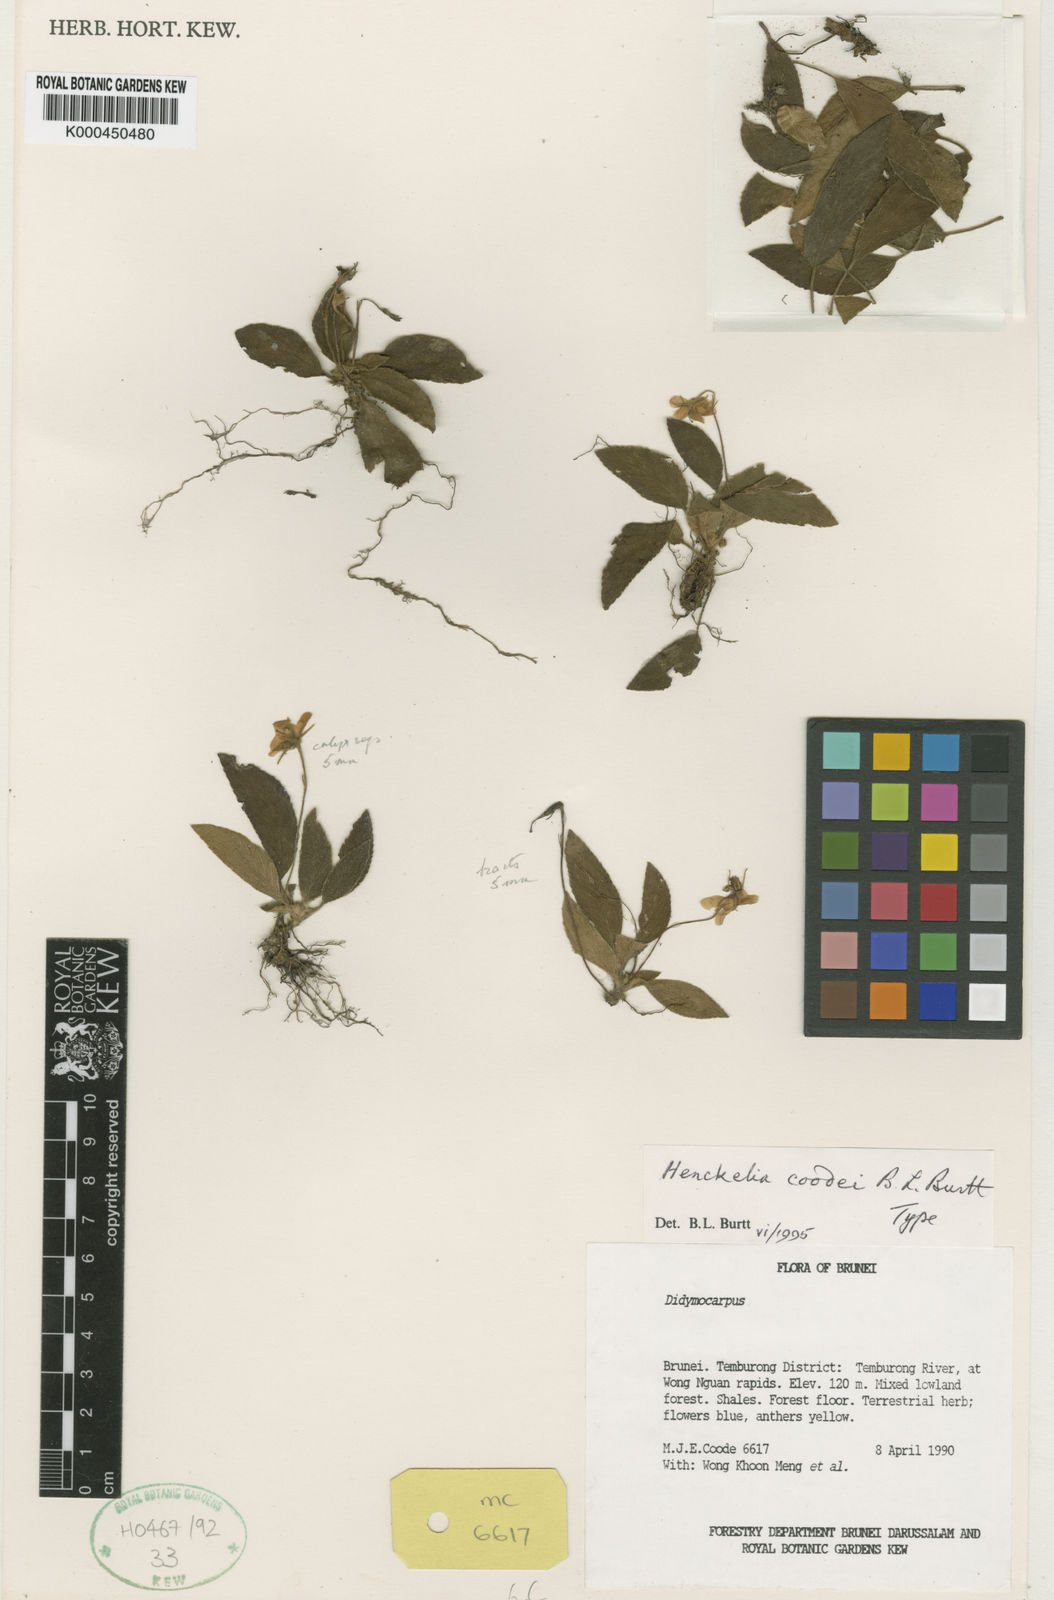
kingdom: Plantae
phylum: Tracheophyta
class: Magnoliopsida
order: Lamiales
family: Gesneriaceae
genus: Loxocarpus
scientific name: Loxocarpus coodei
